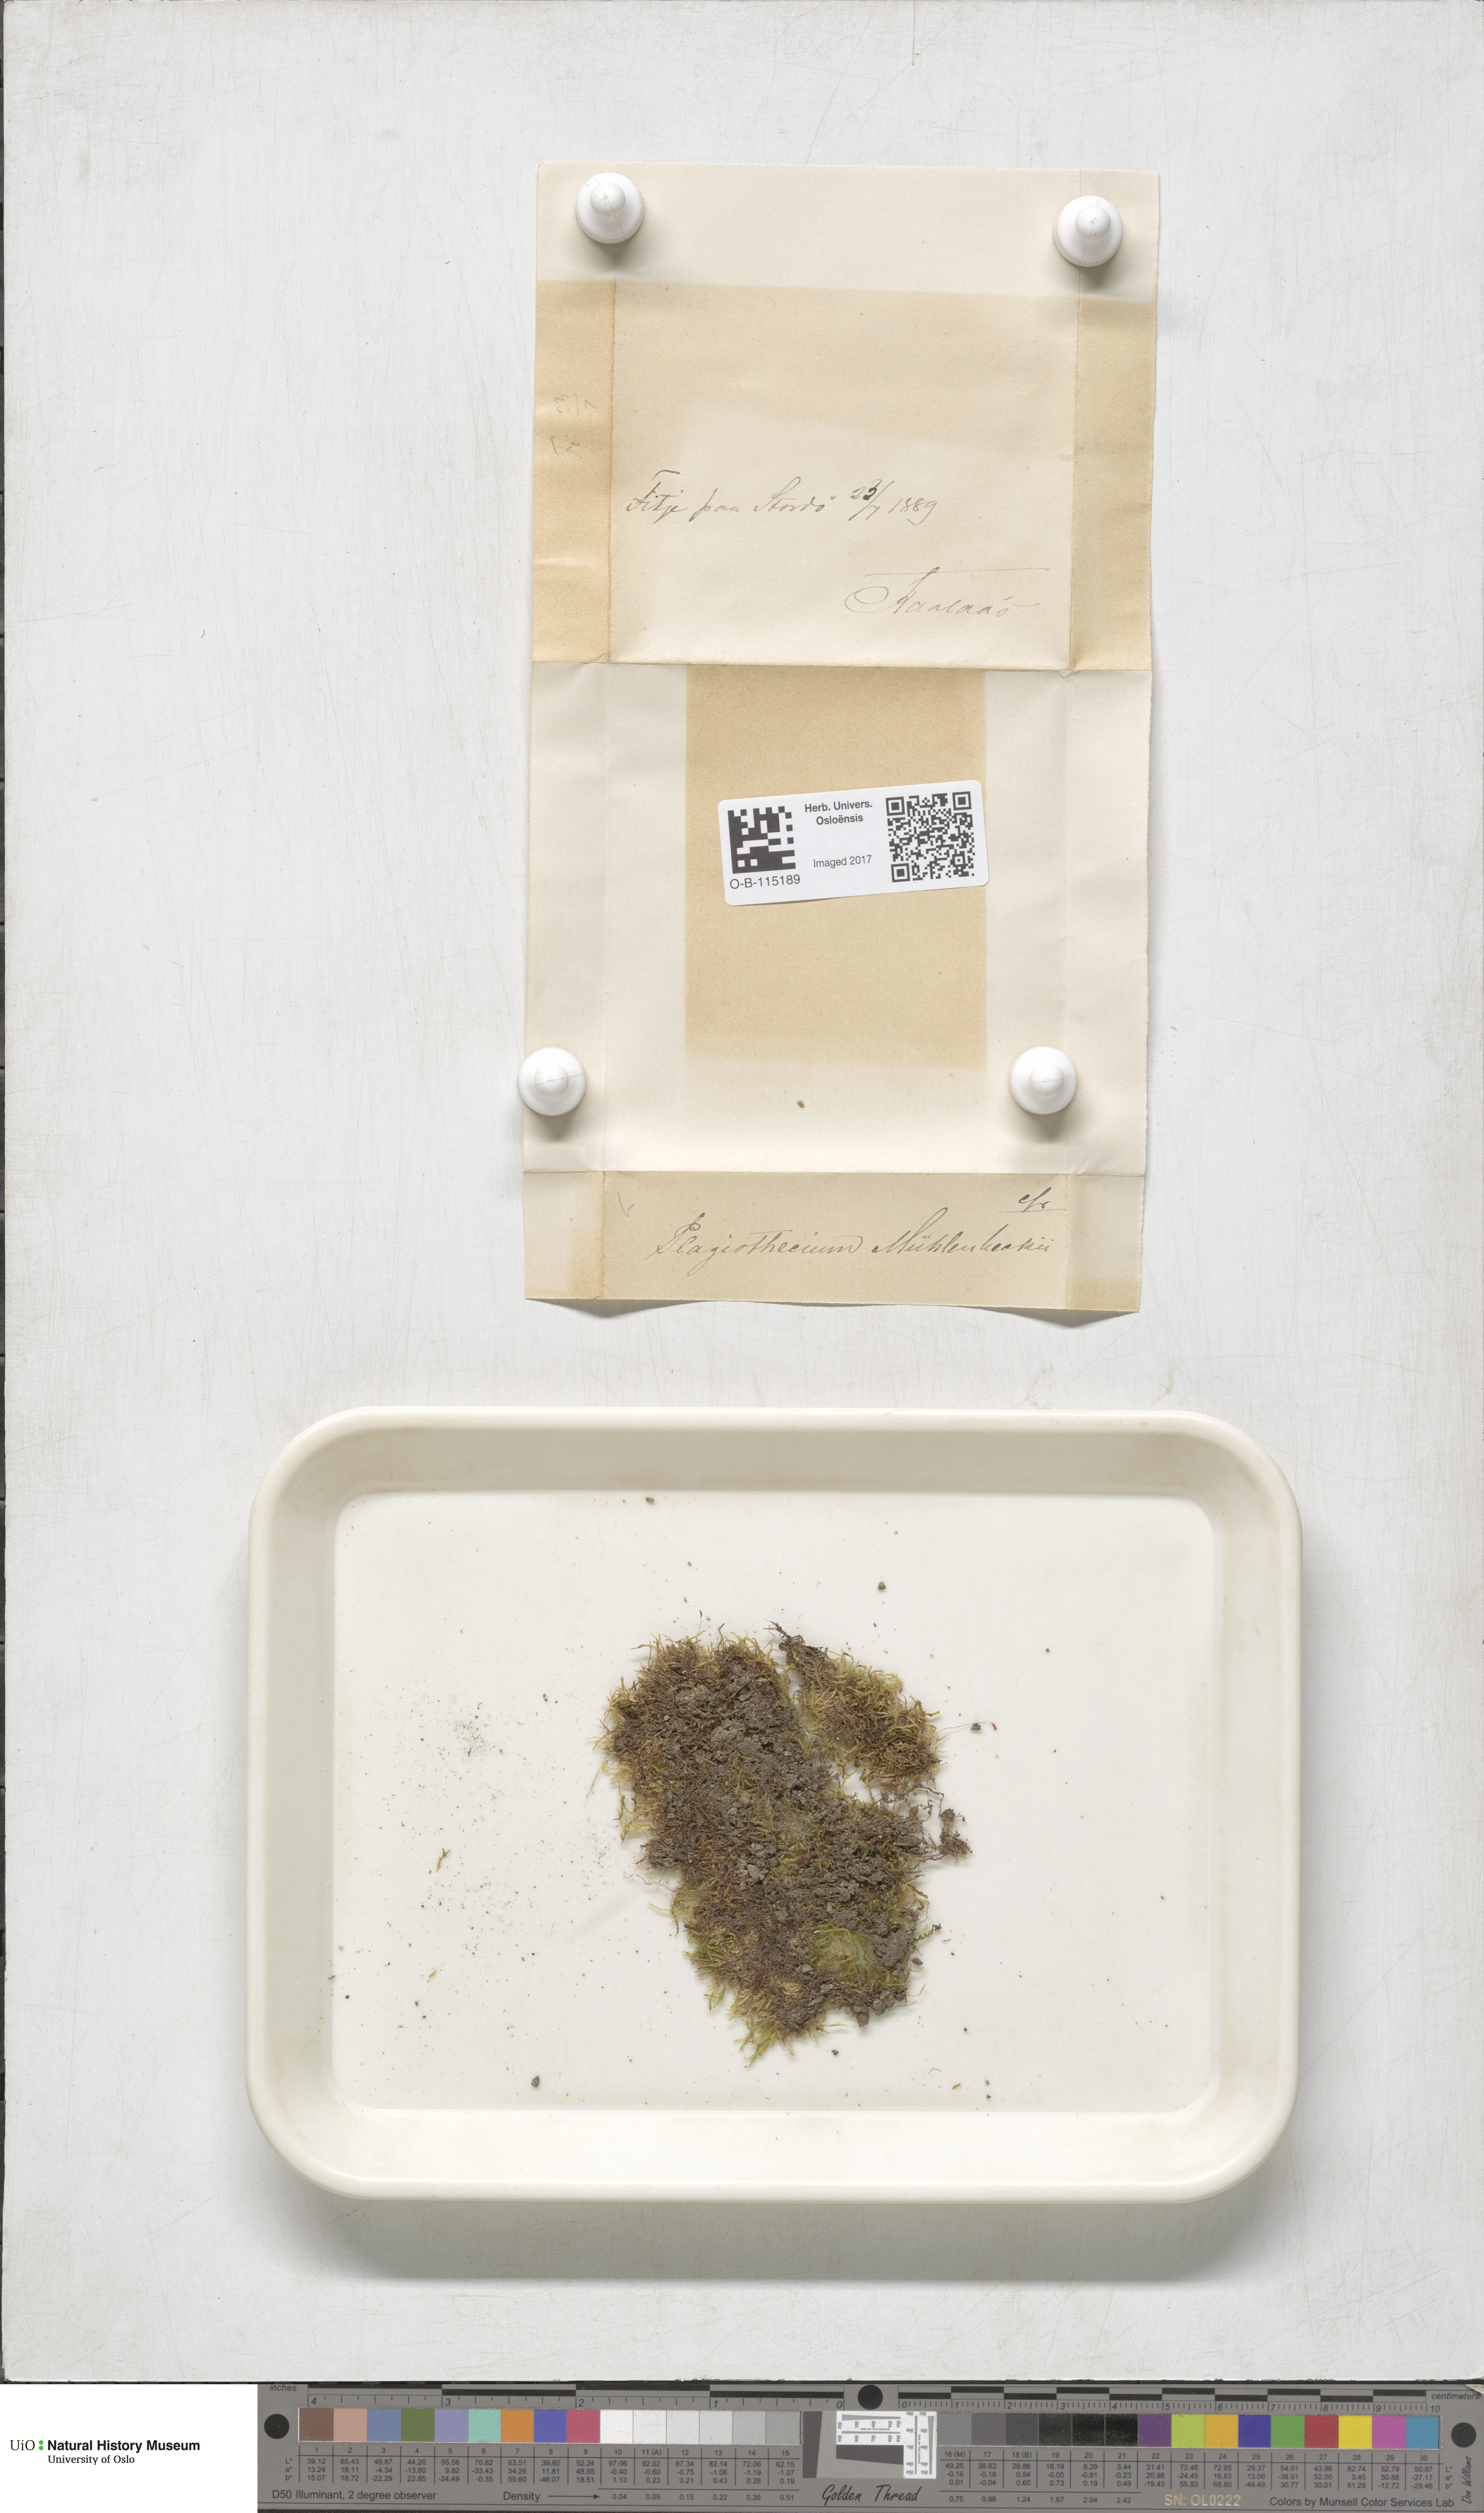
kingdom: Plantae
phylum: Bryophyta
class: Bryopsida
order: Hypnales
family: Plagiotheciaceae
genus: Herzogiella
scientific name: Herzogiella striatella
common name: Muhlenbeck's feather-moss
